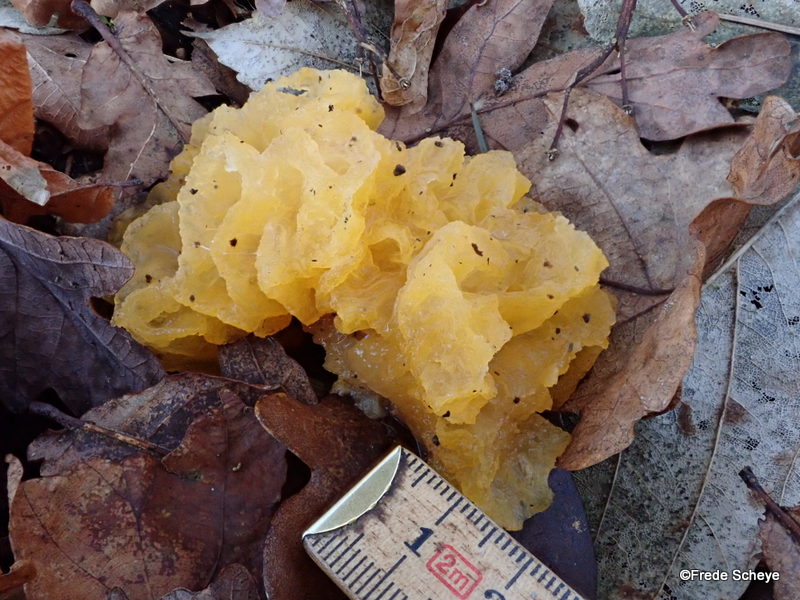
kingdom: Fungi
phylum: Basidiomycota
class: Tremellomycetes
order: Tremellales
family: Tremellaceae
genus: Tremella
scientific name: Tremella mesenterica
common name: gul bævresvamp
